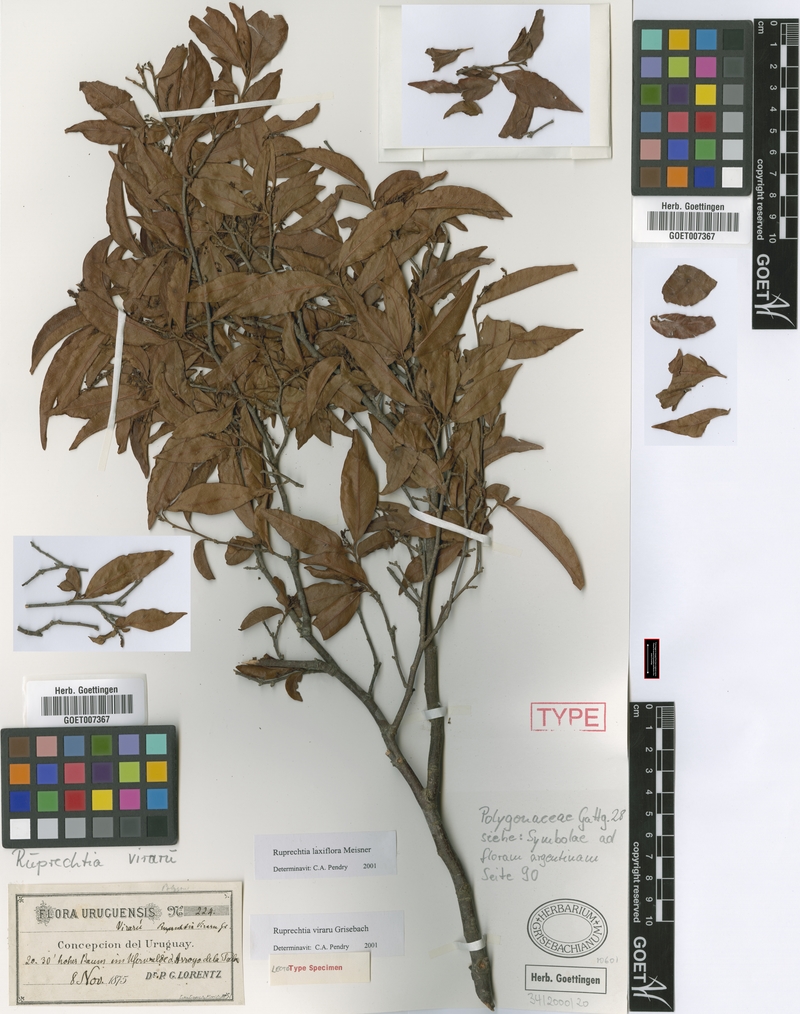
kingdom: Plantae
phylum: Tracheophyta
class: Magnoliopsida
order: Caryophyllales
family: Polygonaceae
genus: Ruprechtia
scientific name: Ruprechtia laxiflora
